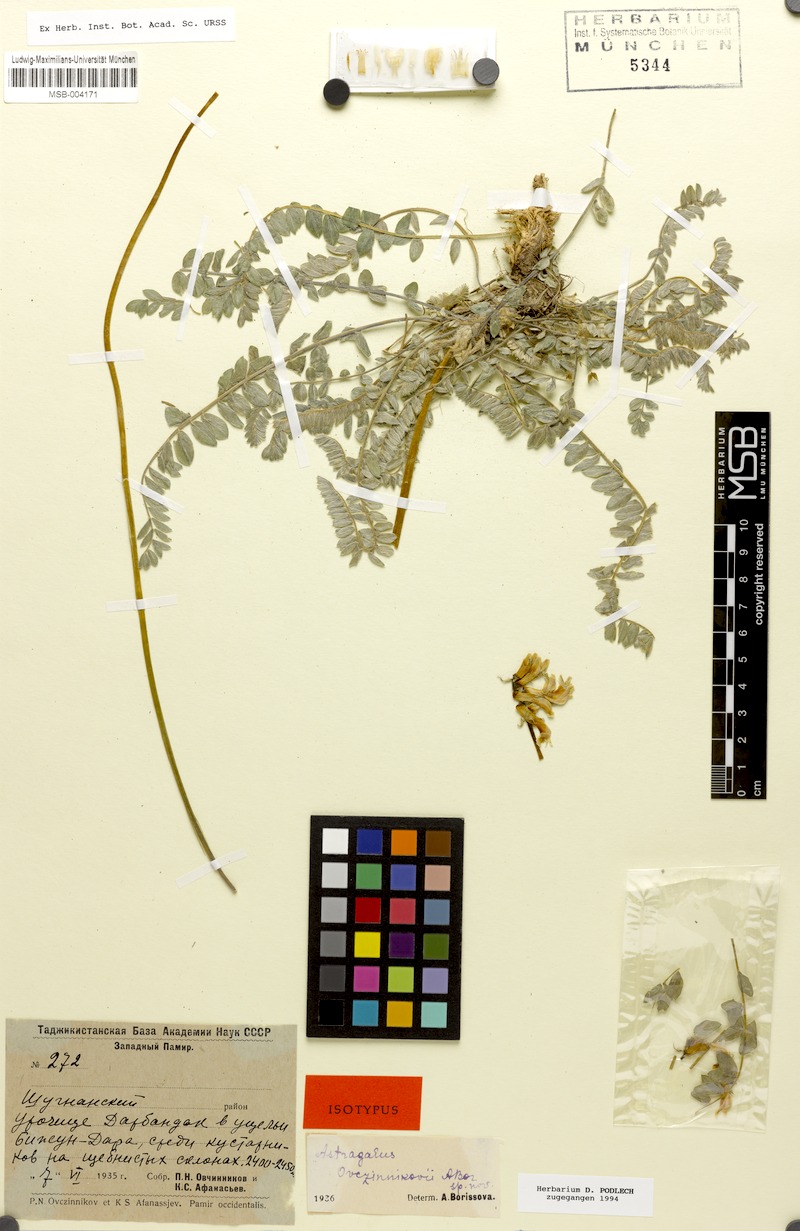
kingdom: Plantae
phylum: Tracheophyta
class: Magnoliopsida
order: Fabales
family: Fabaceae
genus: Astragalus
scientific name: Astragalus ovczinnikovii
